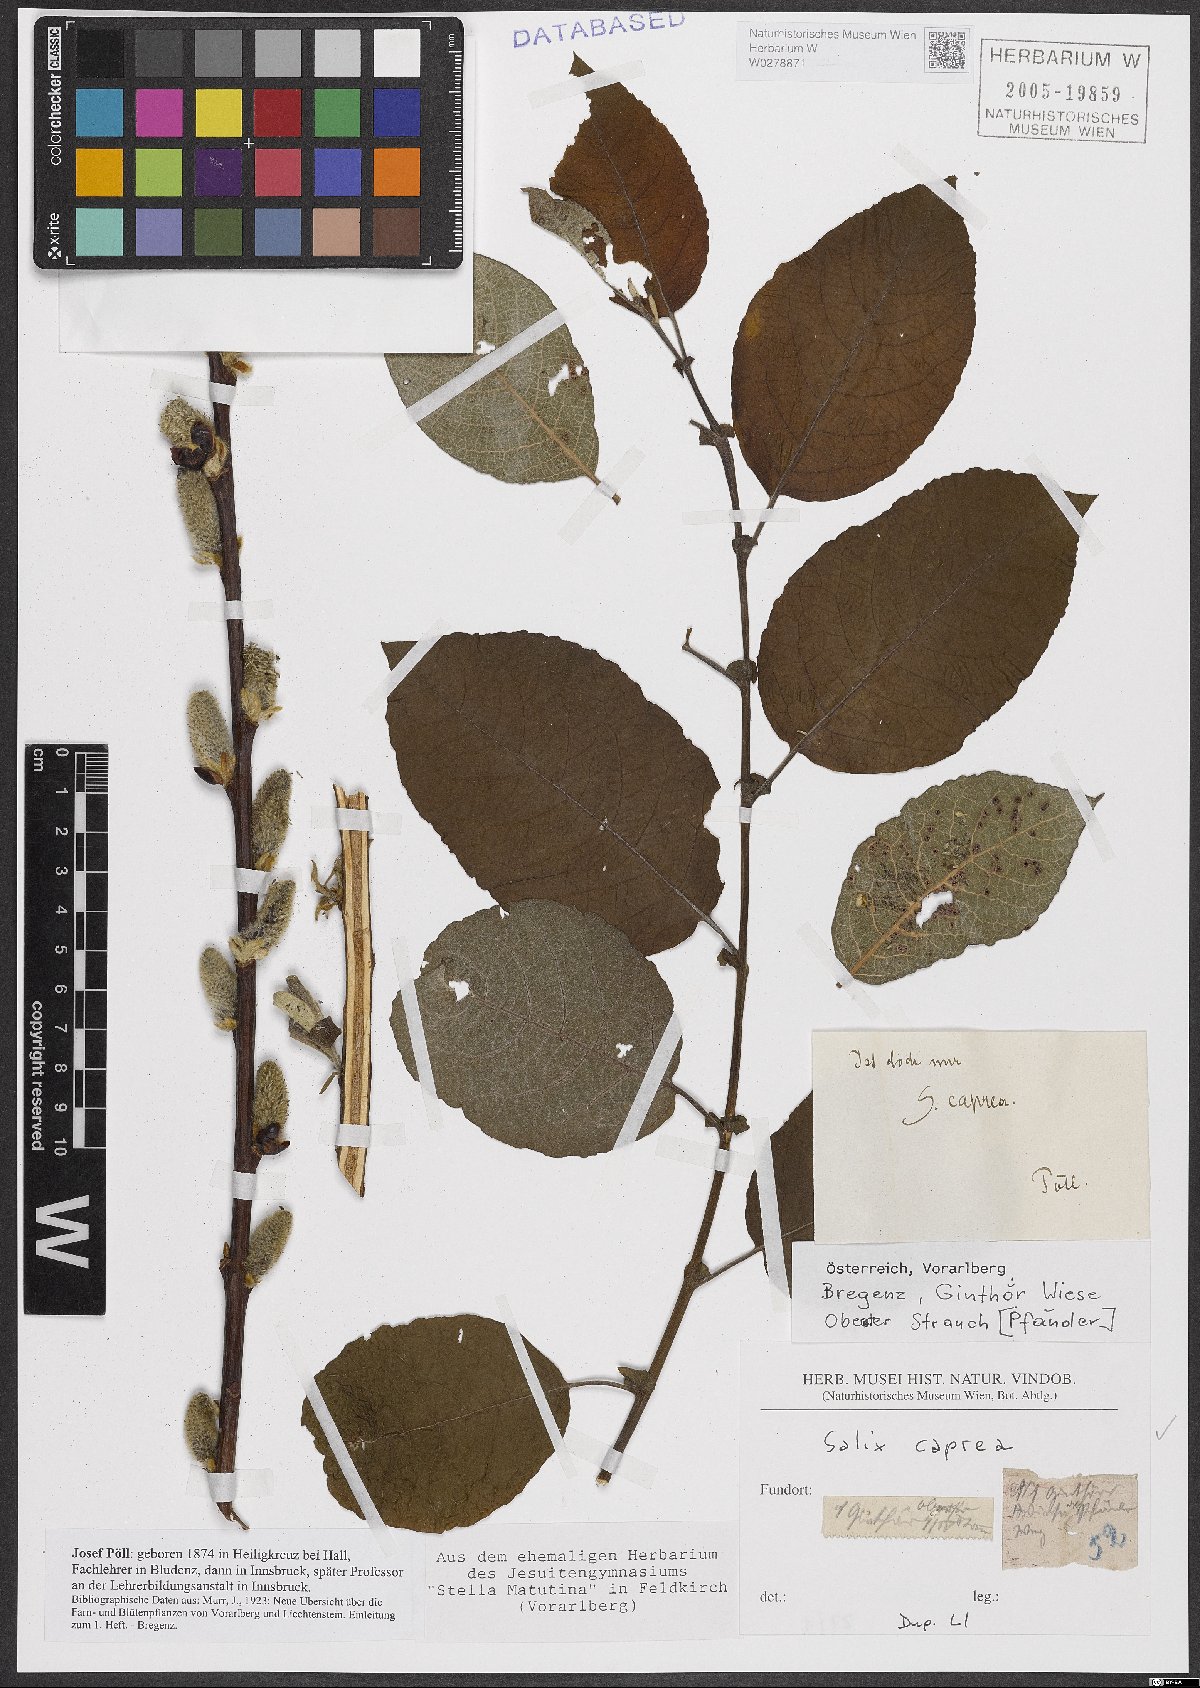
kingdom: Plantae
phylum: Tracheophyta
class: Magnoliopsida
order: Malpighiales
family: Salicaceae
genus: Salix
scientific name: Salix caprea
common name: Goat willow
